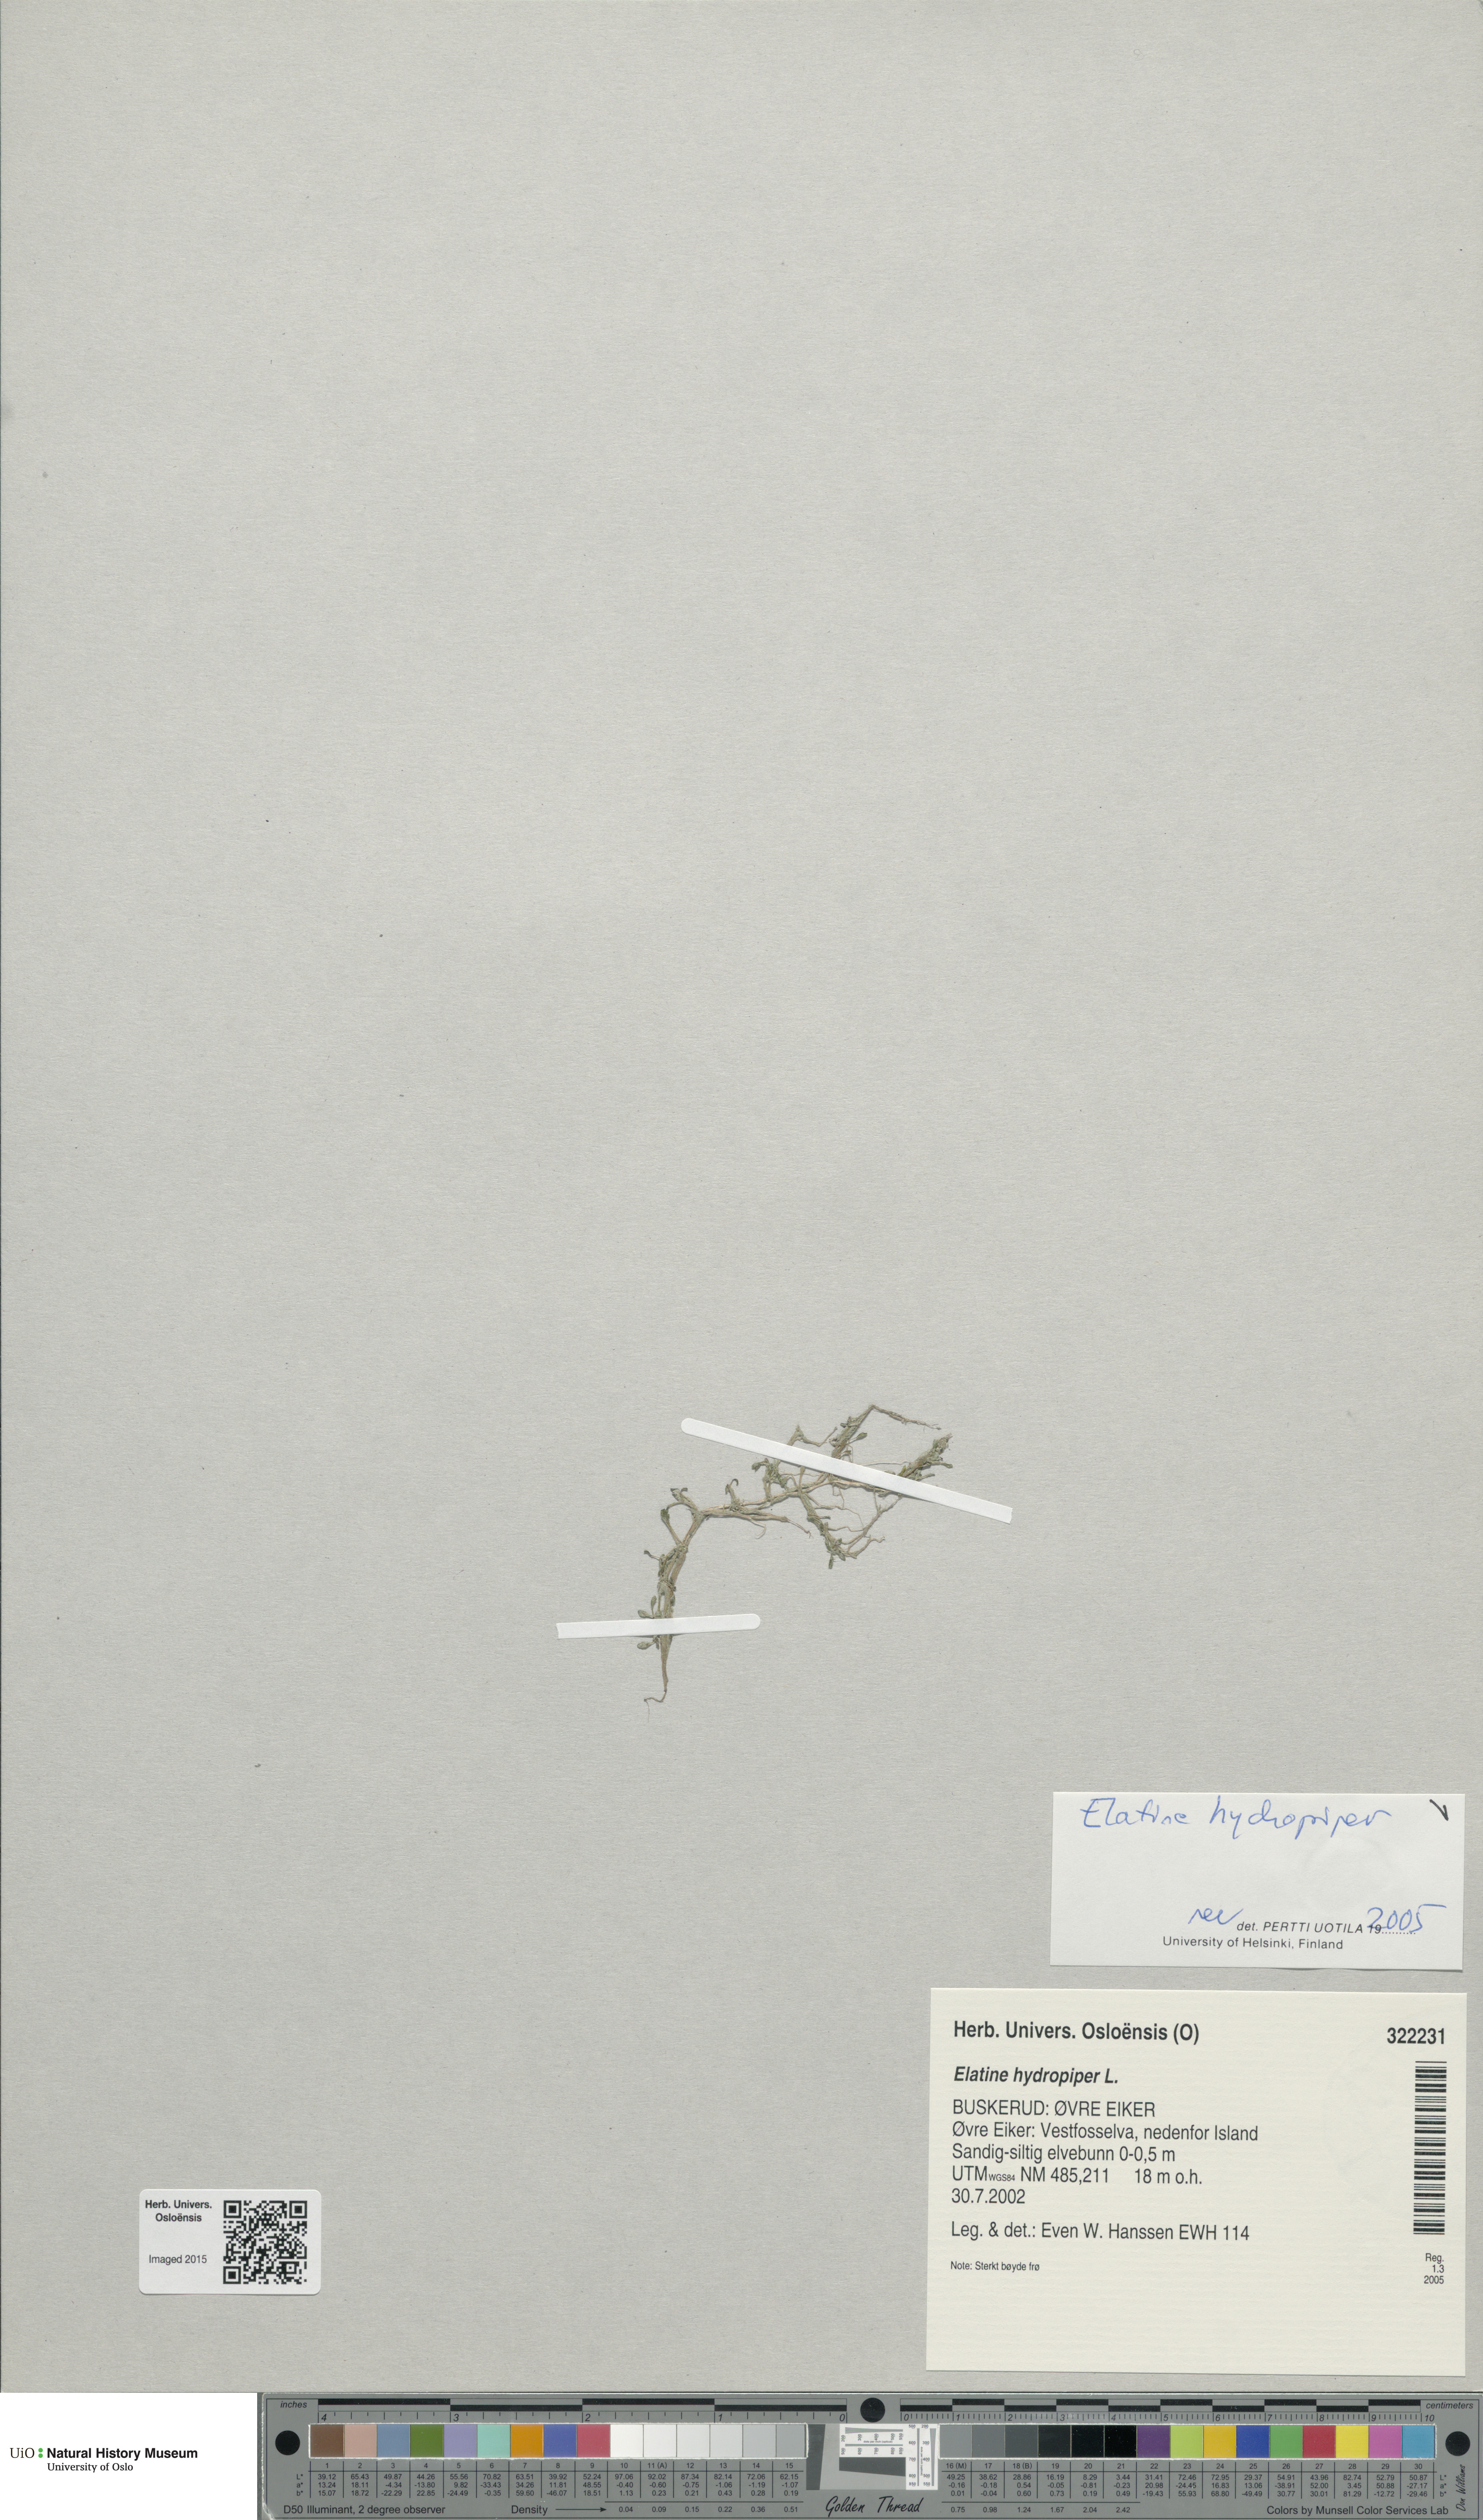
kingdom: Plantae
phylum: Tracheophyta
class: Magnoliopsida
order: Malpighiales
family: Elatinaceae
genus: Elatine
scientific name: Elatine hydropiper
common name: Eight-stamened waterwort
